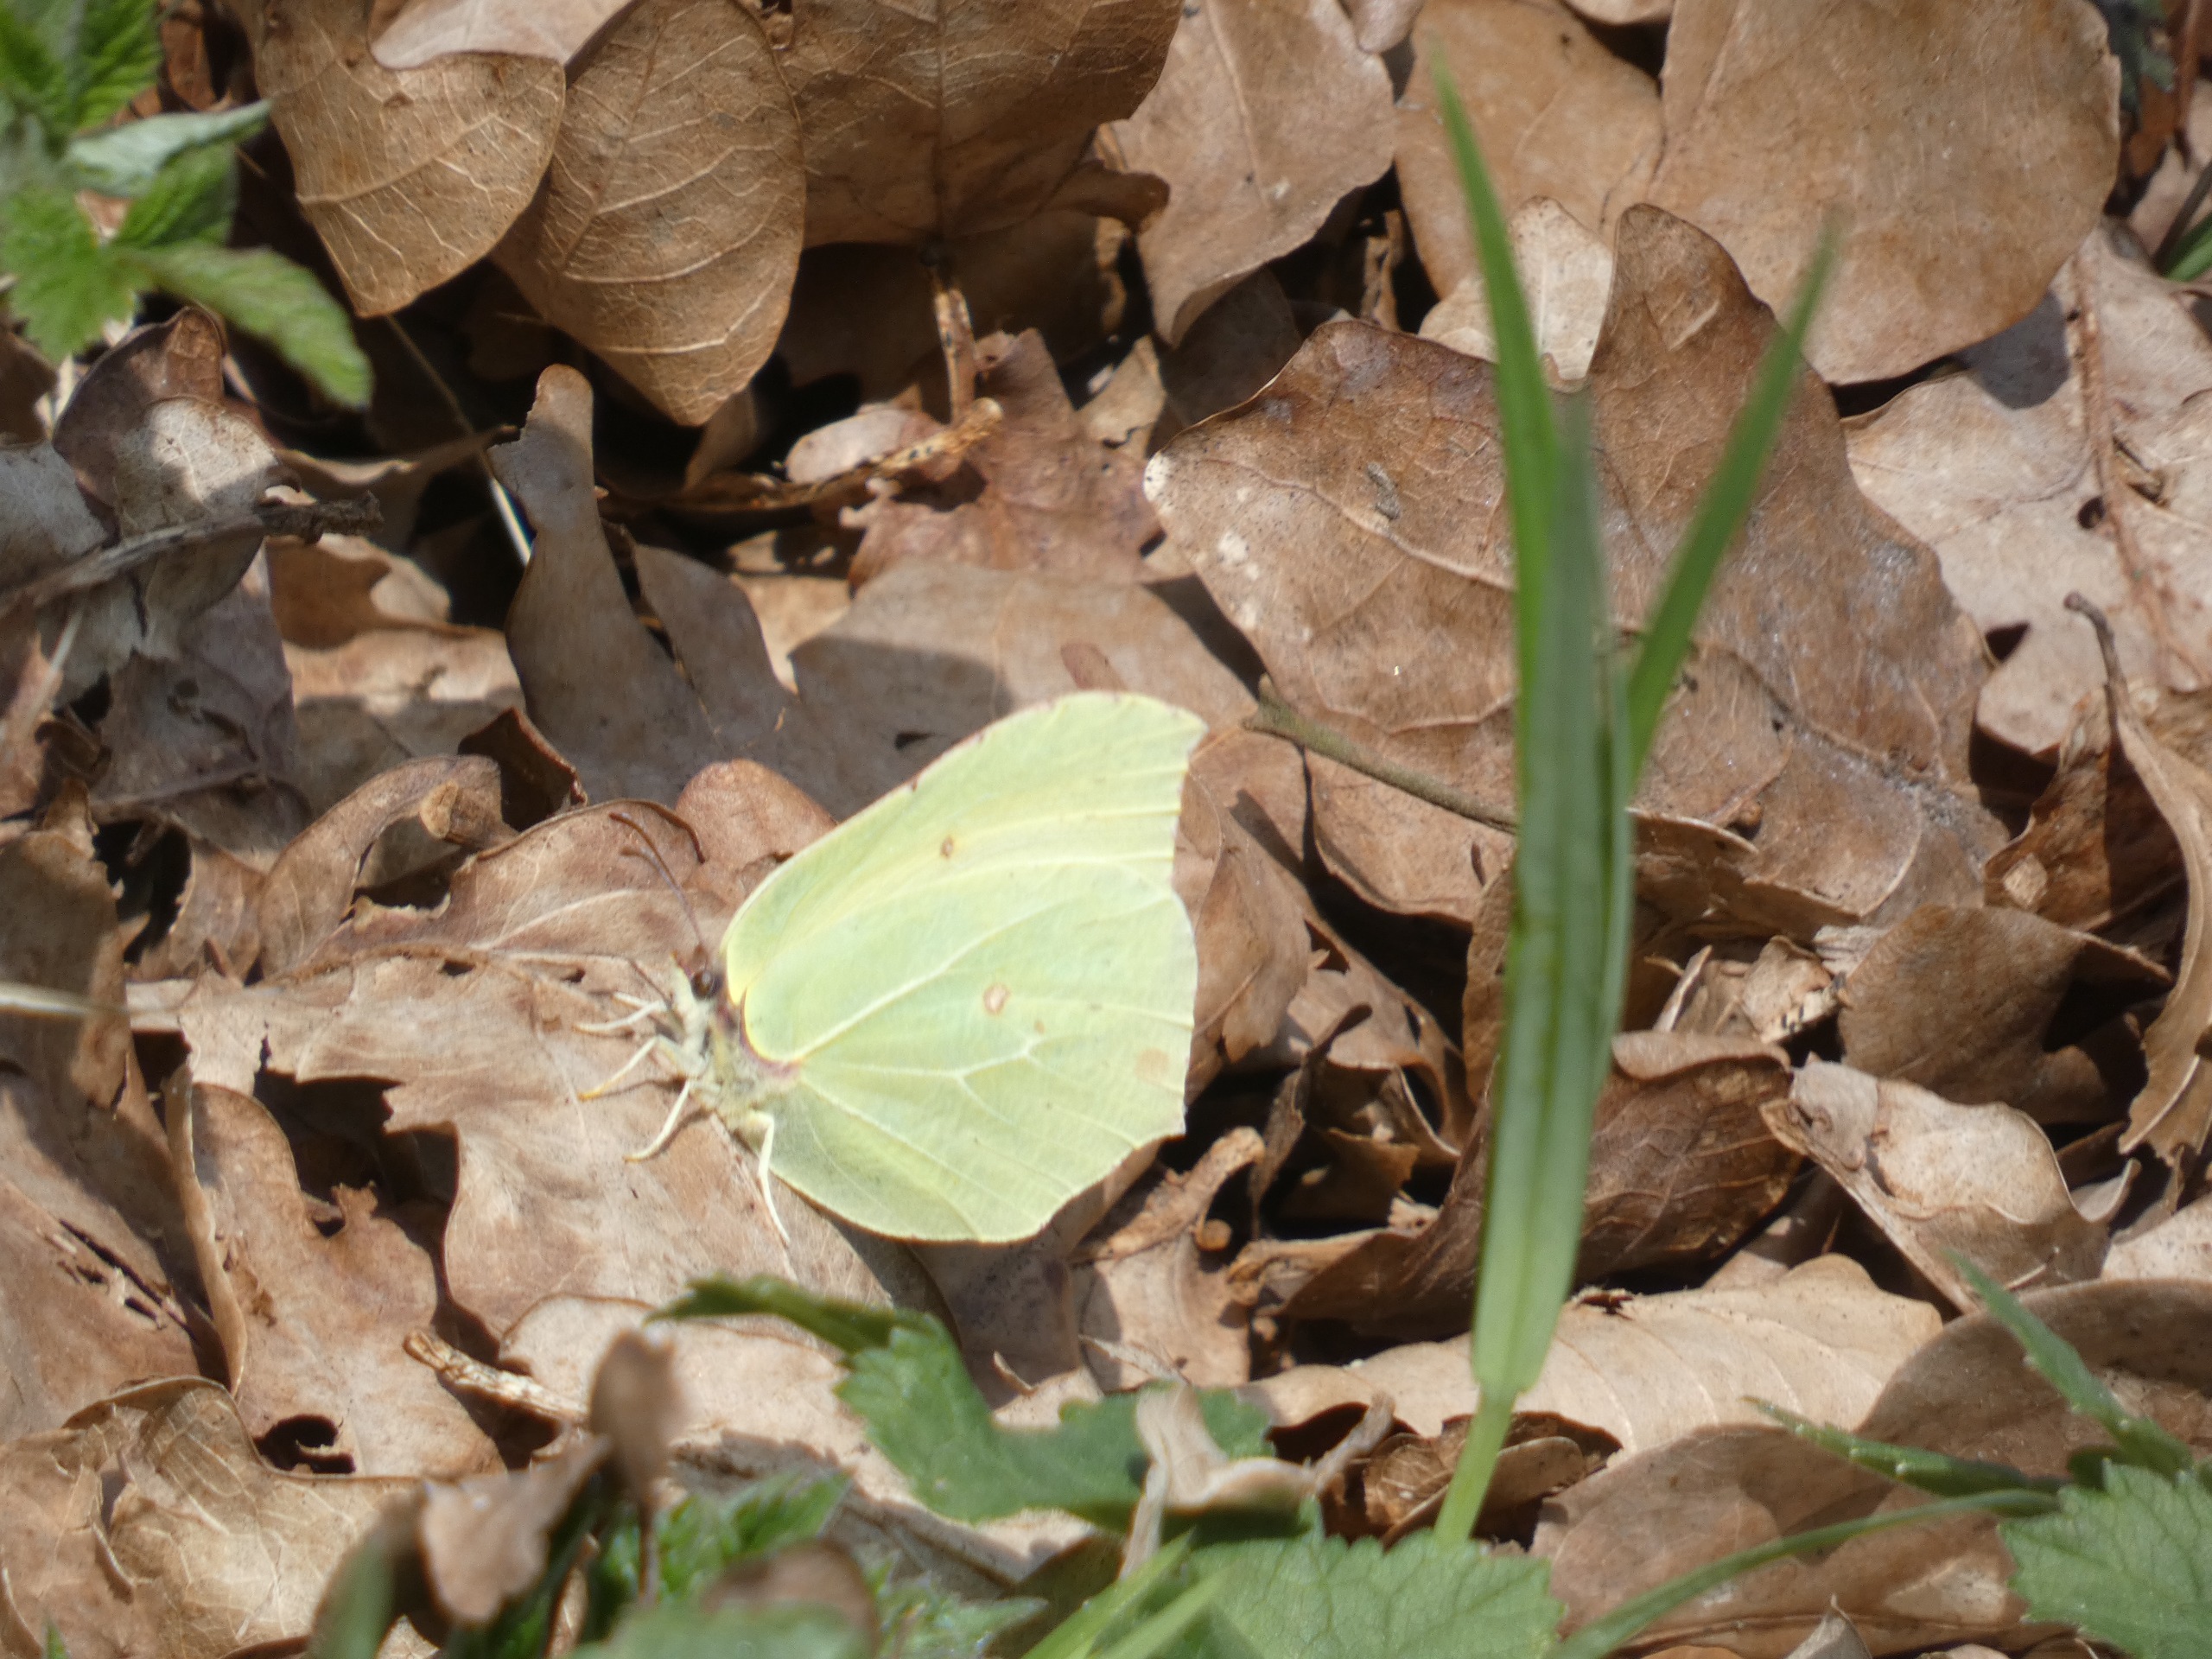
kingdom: Animalia
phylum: Arthropoda
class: Insecta
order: Lepidoptera
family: Pieridae
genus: Gonepteryx
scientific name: Gonepteryx rhamni
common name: Citronsommerfugl
